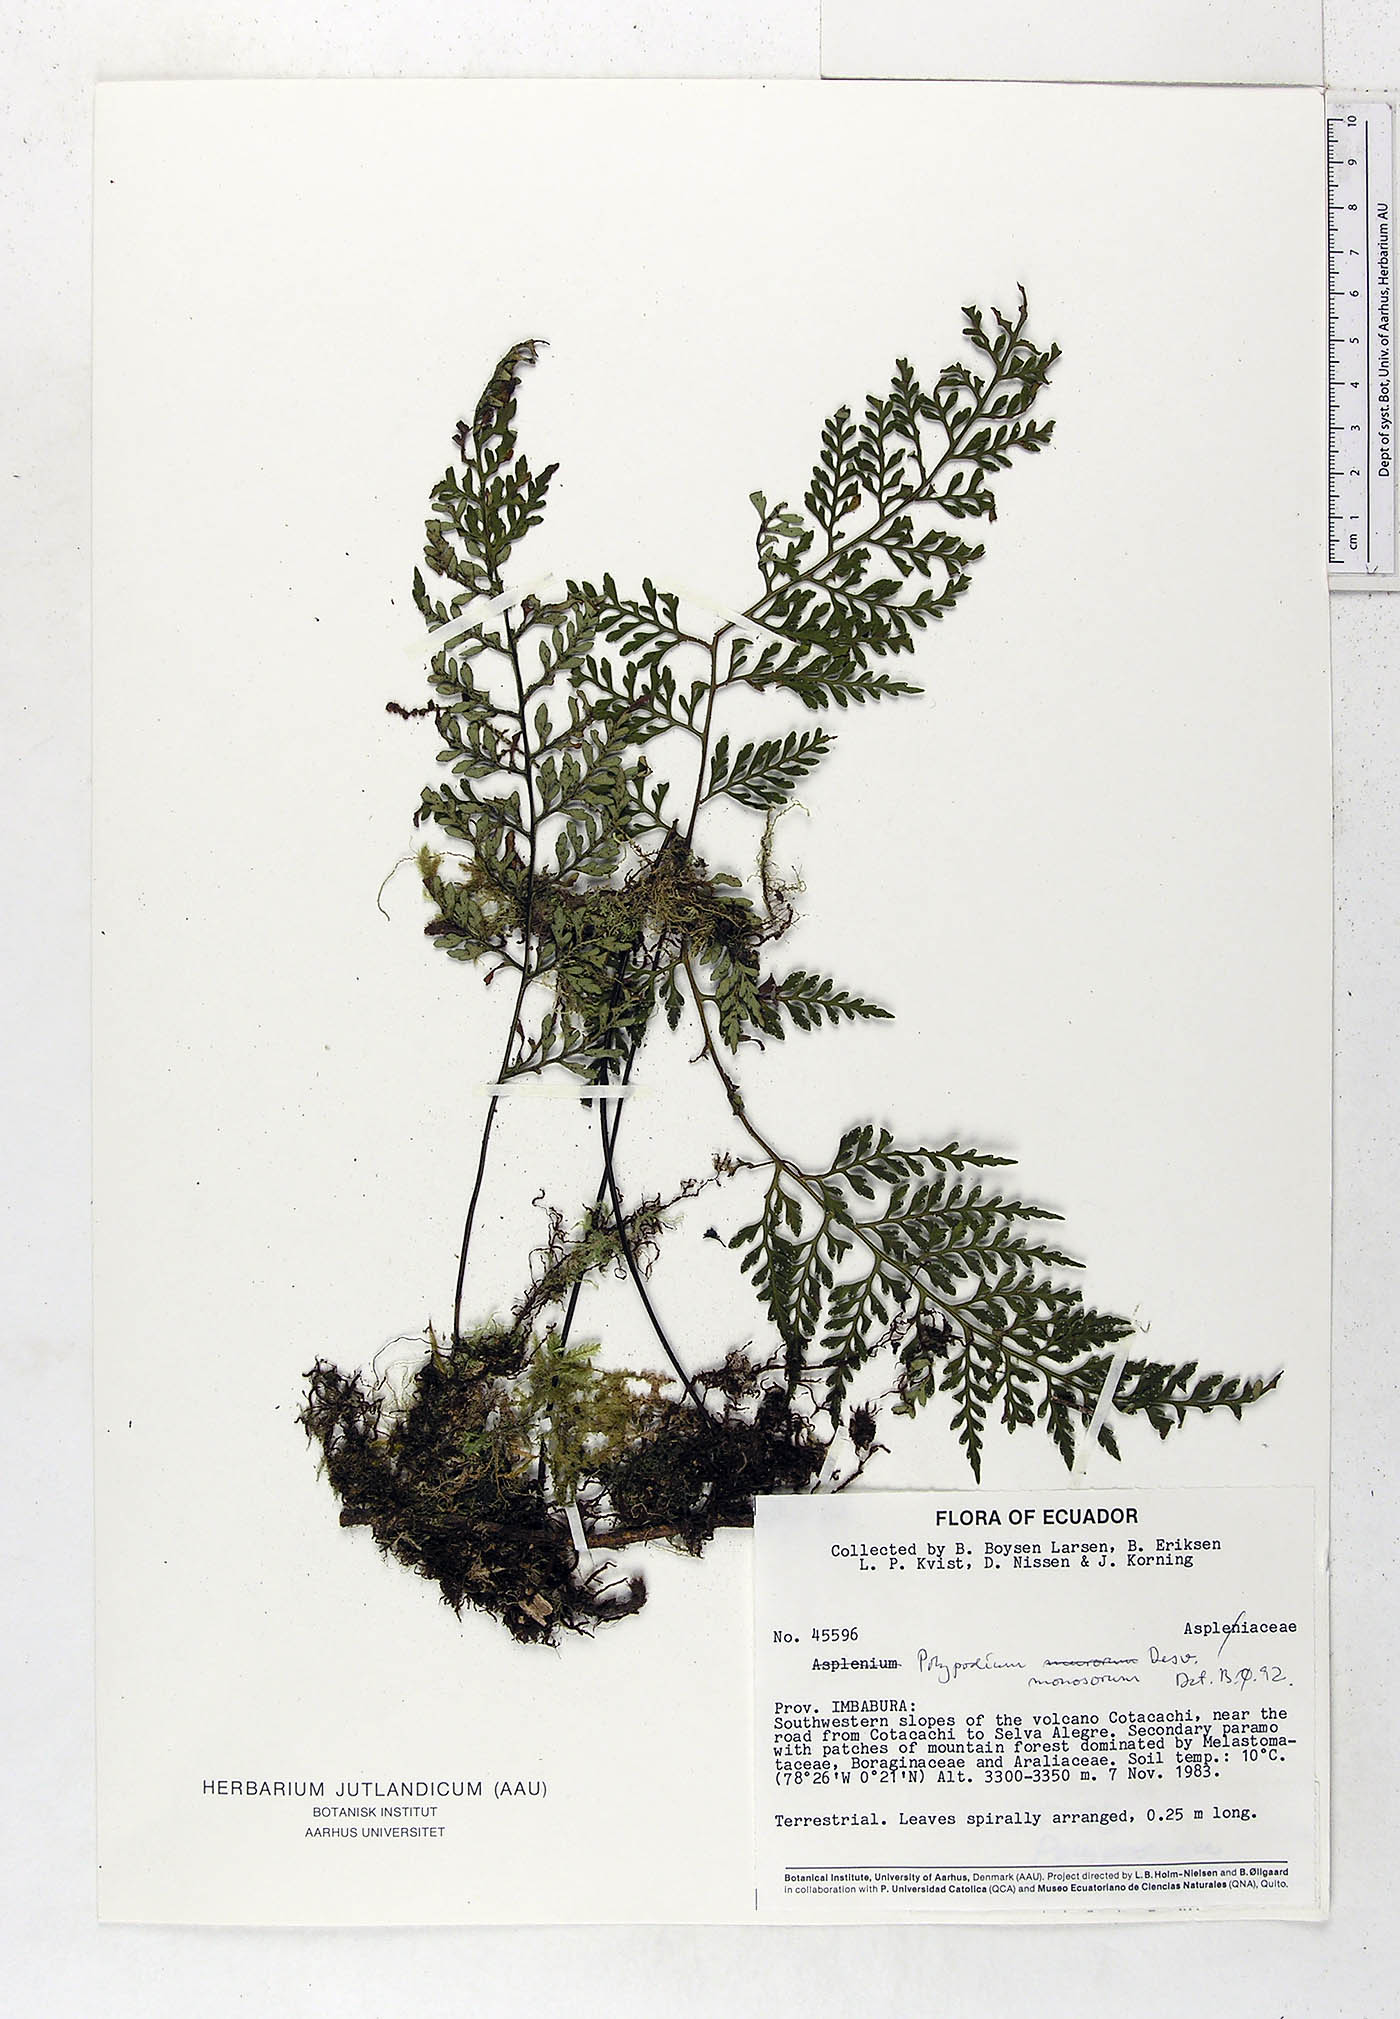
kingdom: Plantae
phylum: Tracheophyta
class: Polypodiopsida
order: Polypodiales
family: Polypodiaceae
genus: Pleopeltis
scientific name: Pleopeltis monosora
